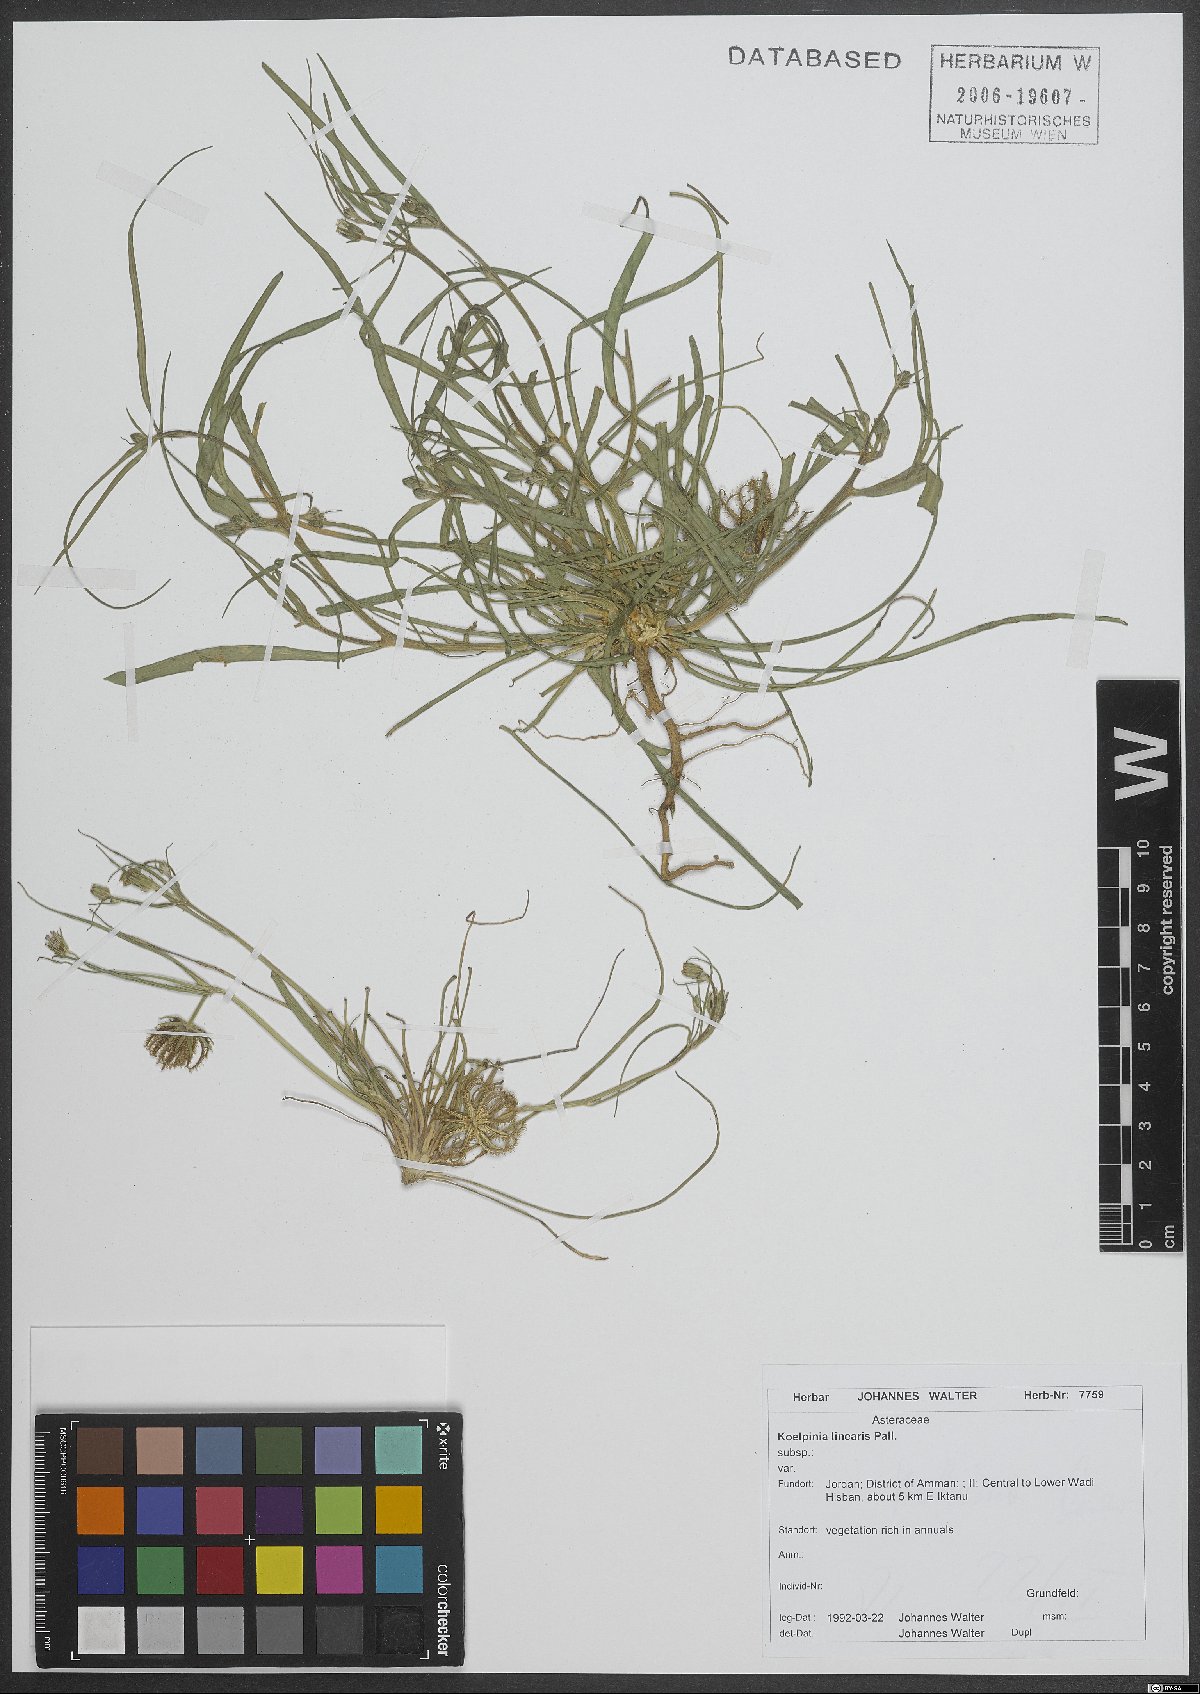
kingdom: Plantae
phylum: Tracheophyta
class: Magnoliopsida
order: Asterales
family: Asteraceae
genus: Koelpinia
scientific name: Koelpinia linearis
